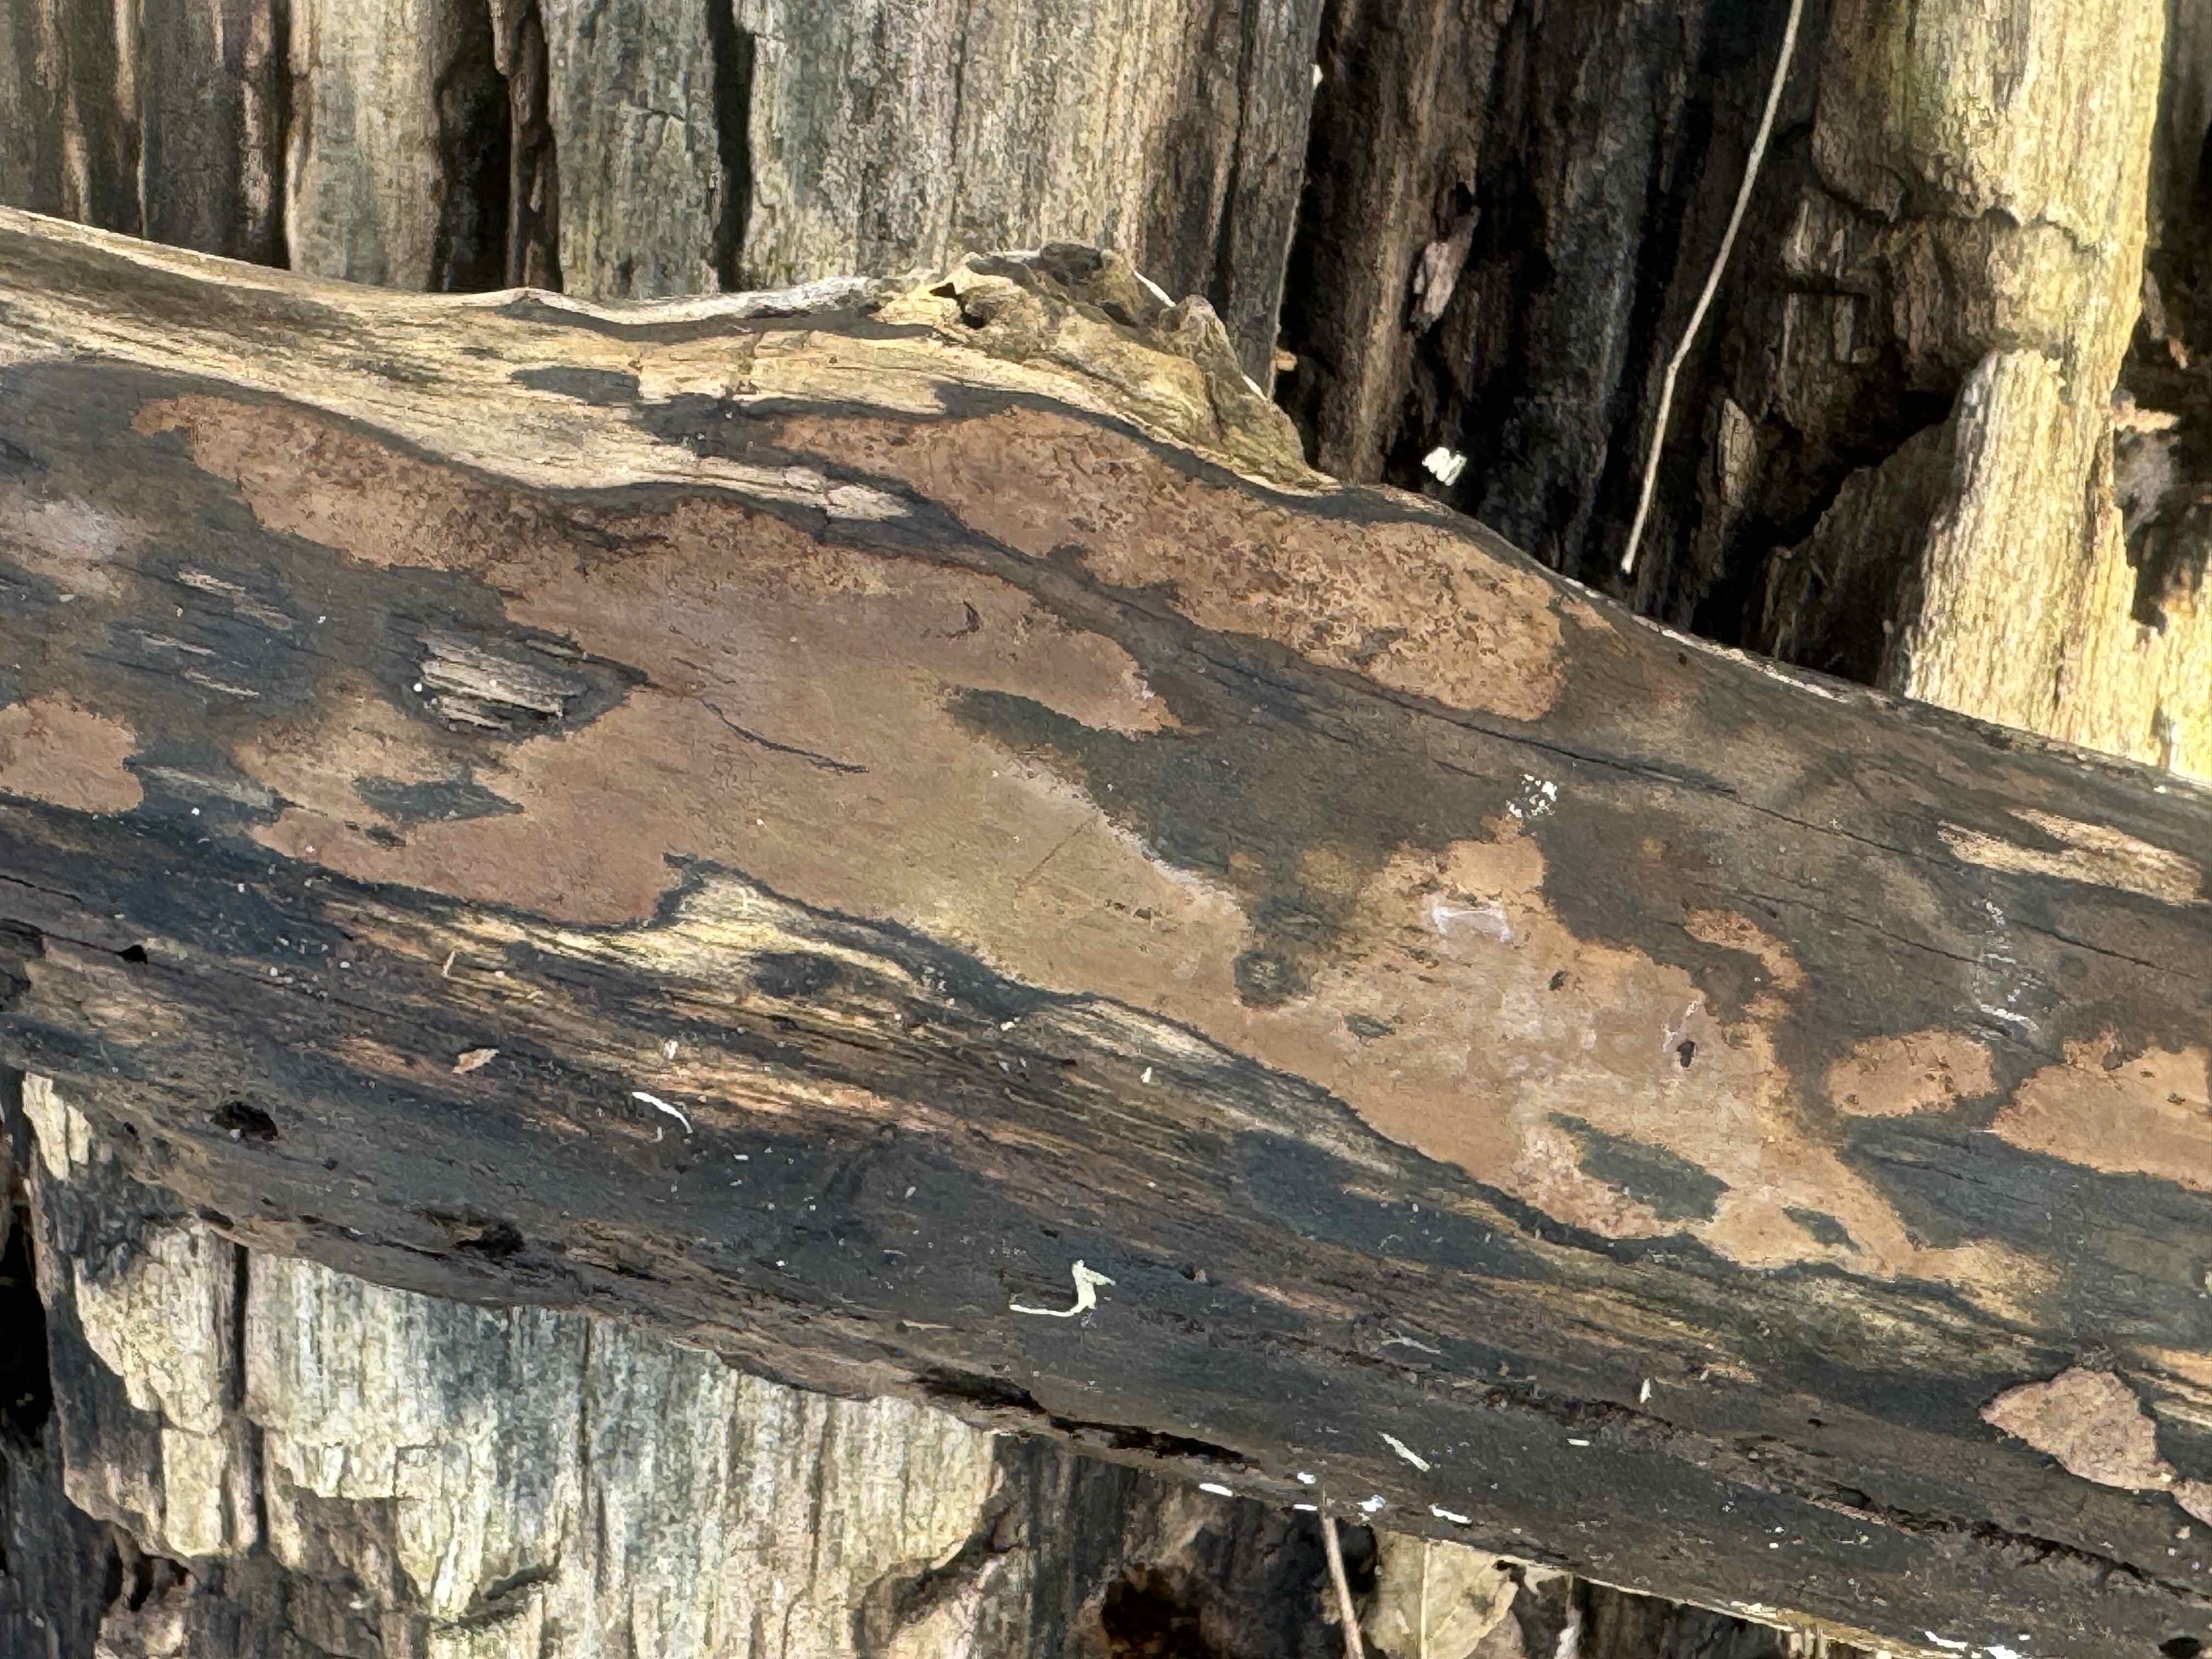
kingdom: Fungi
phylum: Ascomycota
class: Sordariomycetes
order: Xylariales
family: Hypoxylaceae
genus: Hypoxylon
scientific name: Hypoxylon petriniae
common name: nedsænket kulbær
